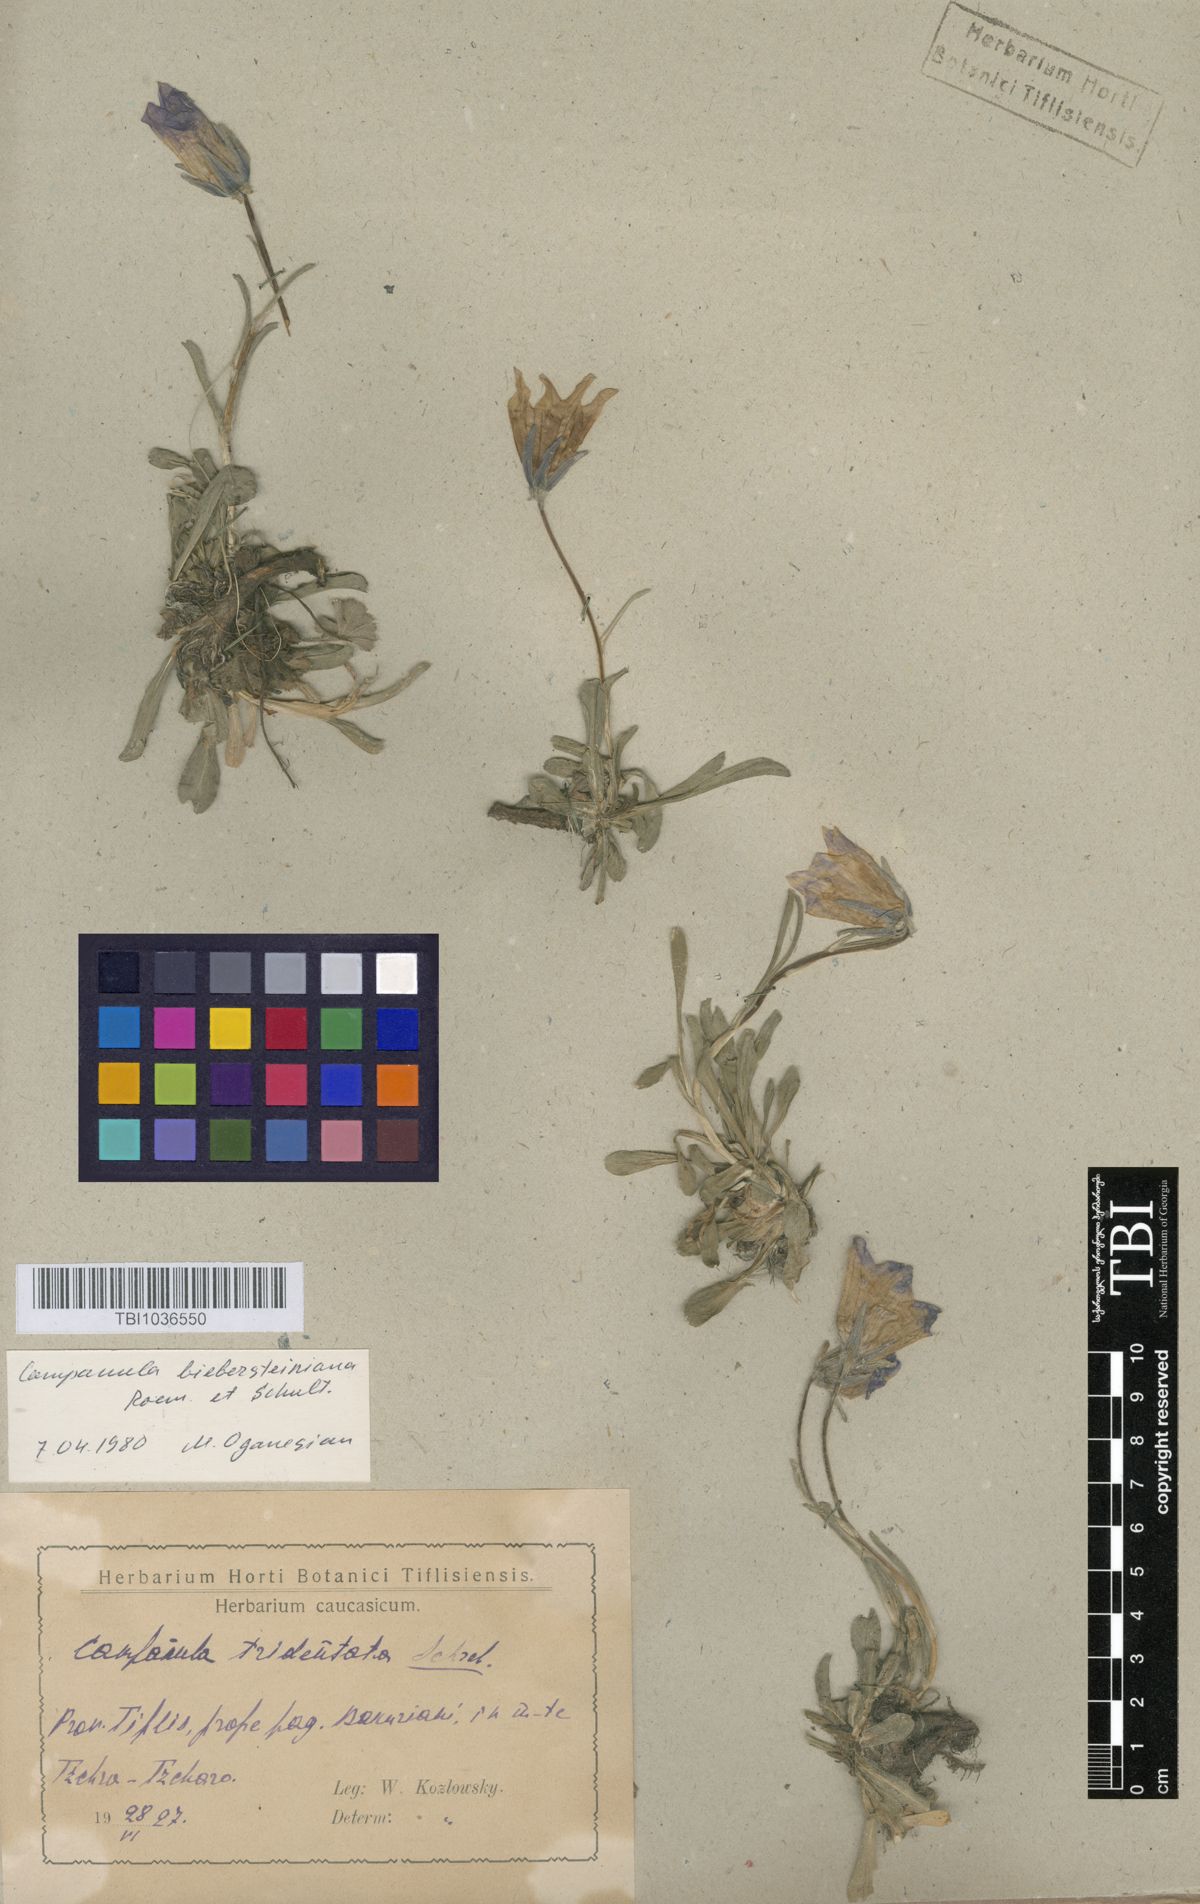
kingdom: Plantae
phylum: Tracheophyta
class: Magnoliopsida
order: Asterales
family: Campanulaceae
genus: Campanula
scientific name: Campanula tridentata
